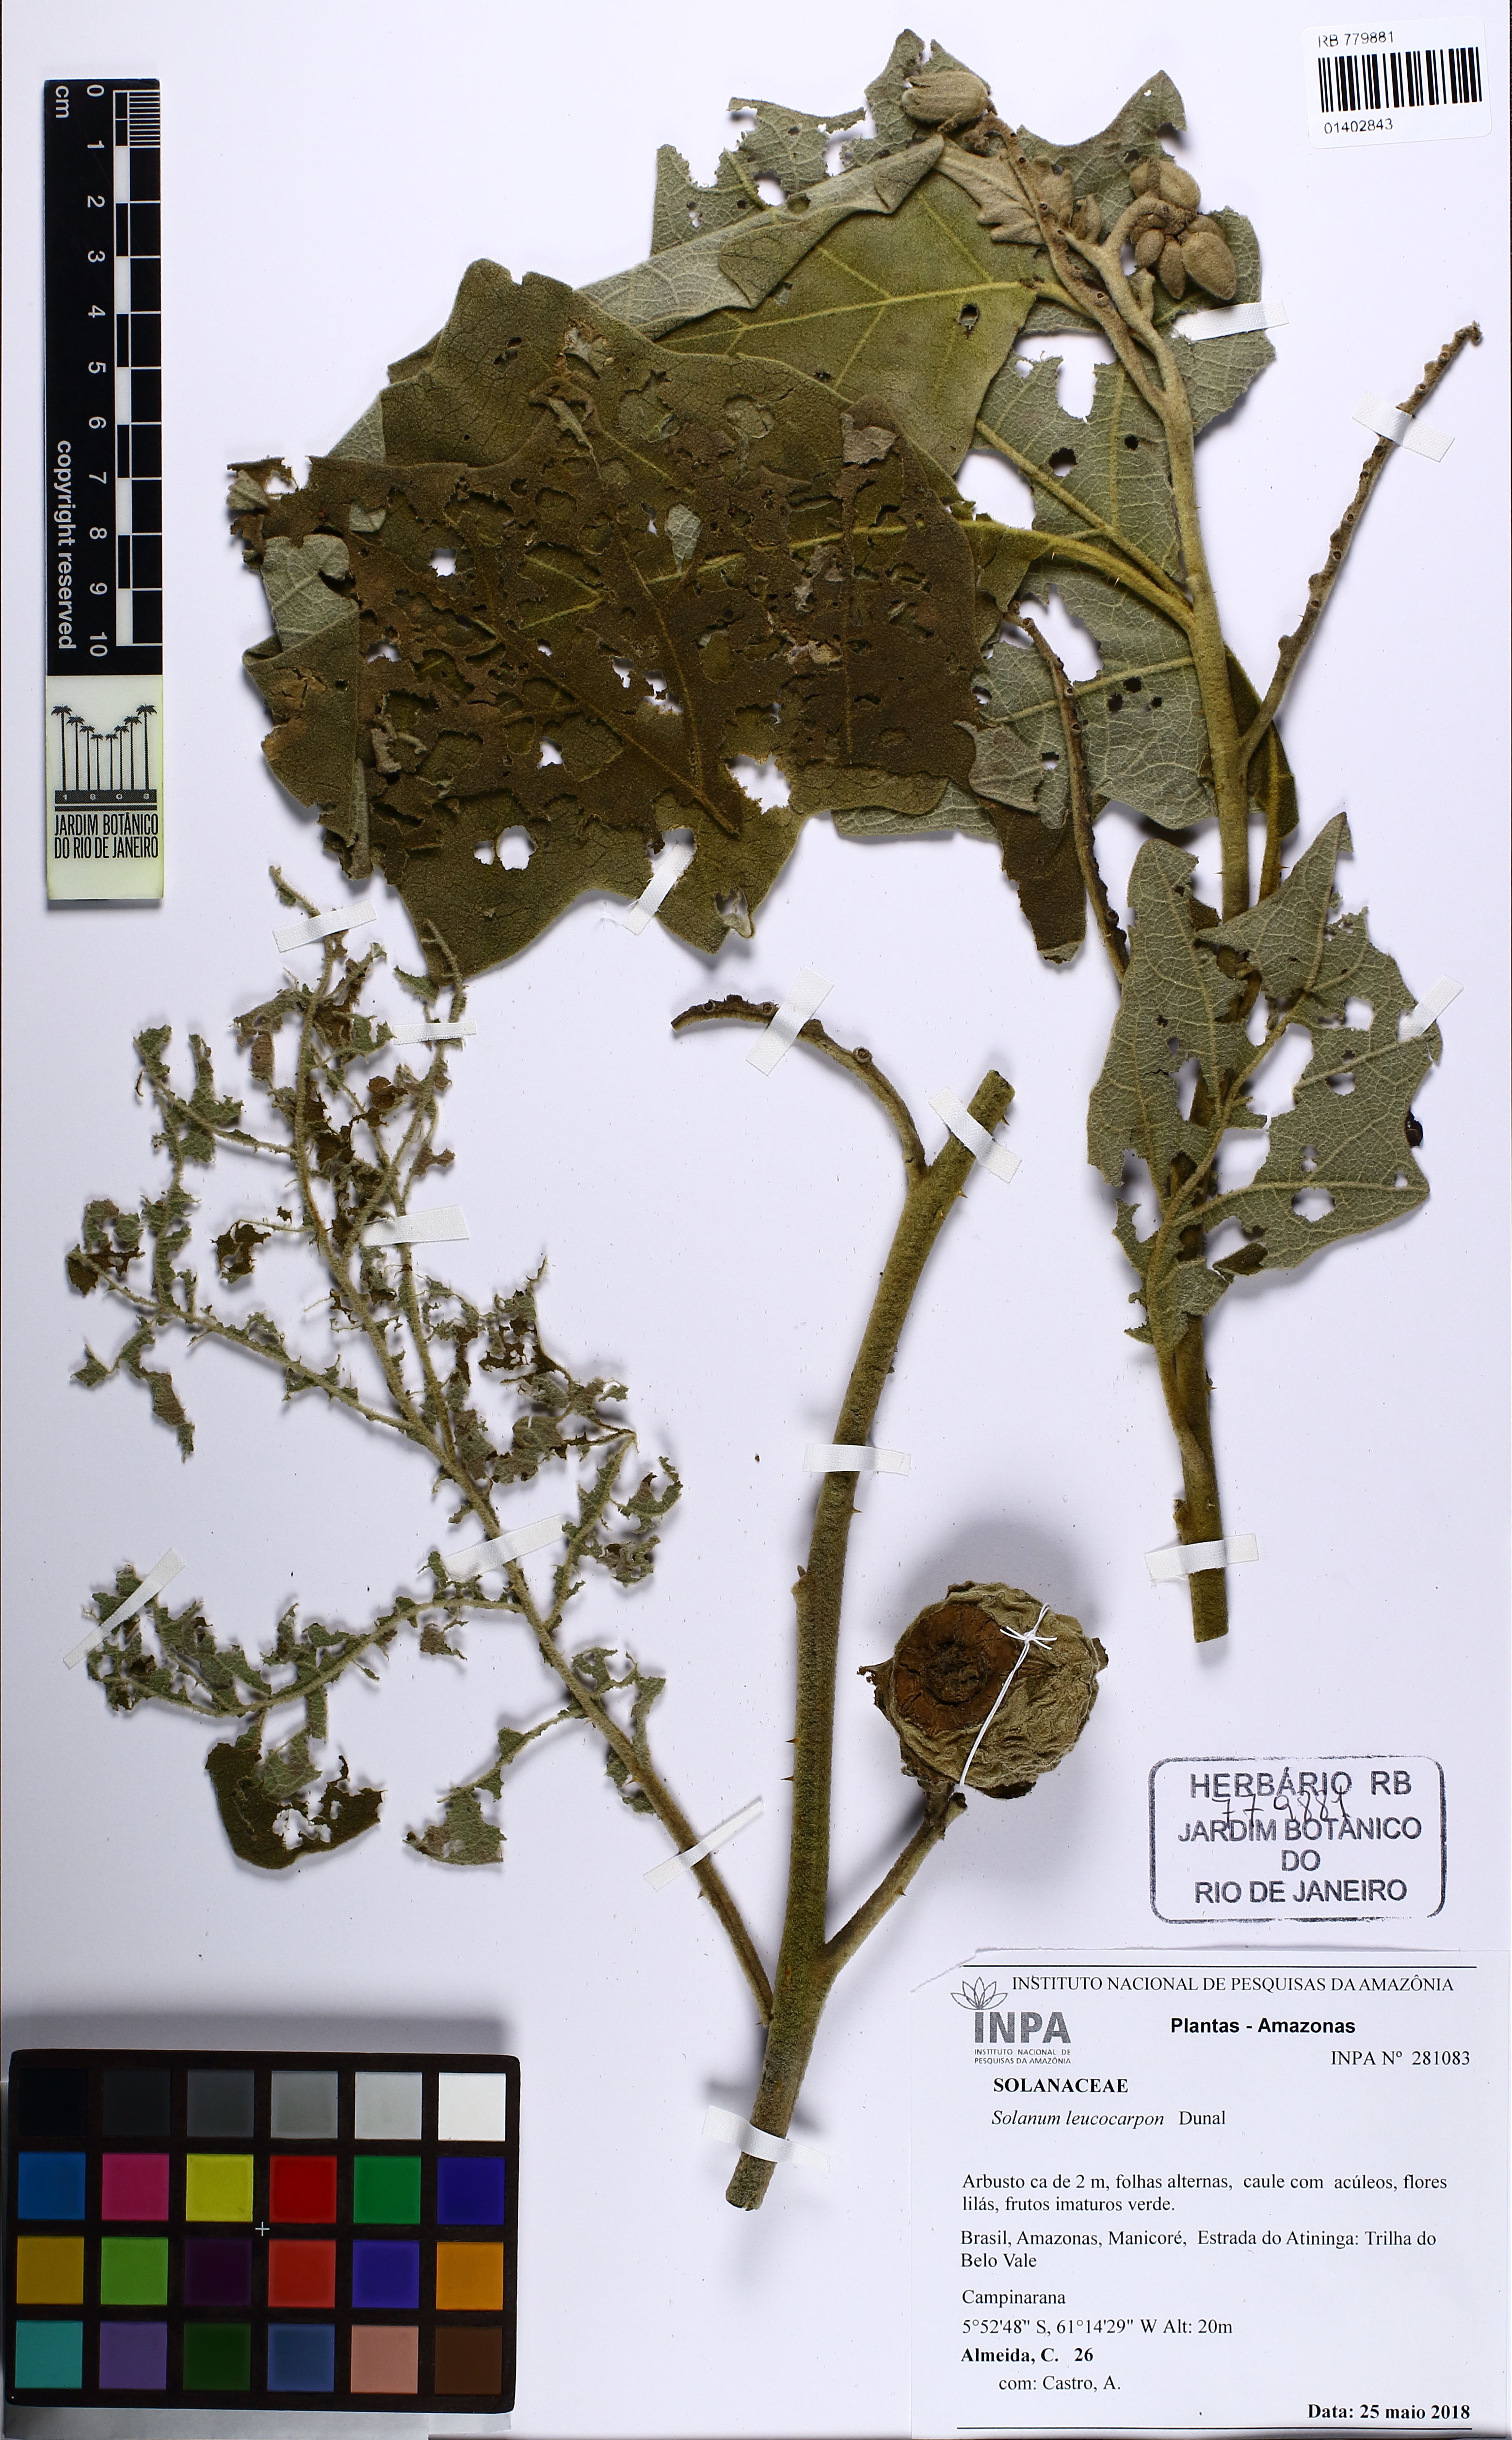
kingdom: Plantae
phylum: Tracheophyta
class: Magnoliopsida
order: Solanales
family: Solanaceae
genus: Solanum
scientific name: Solanum leucocarpon
